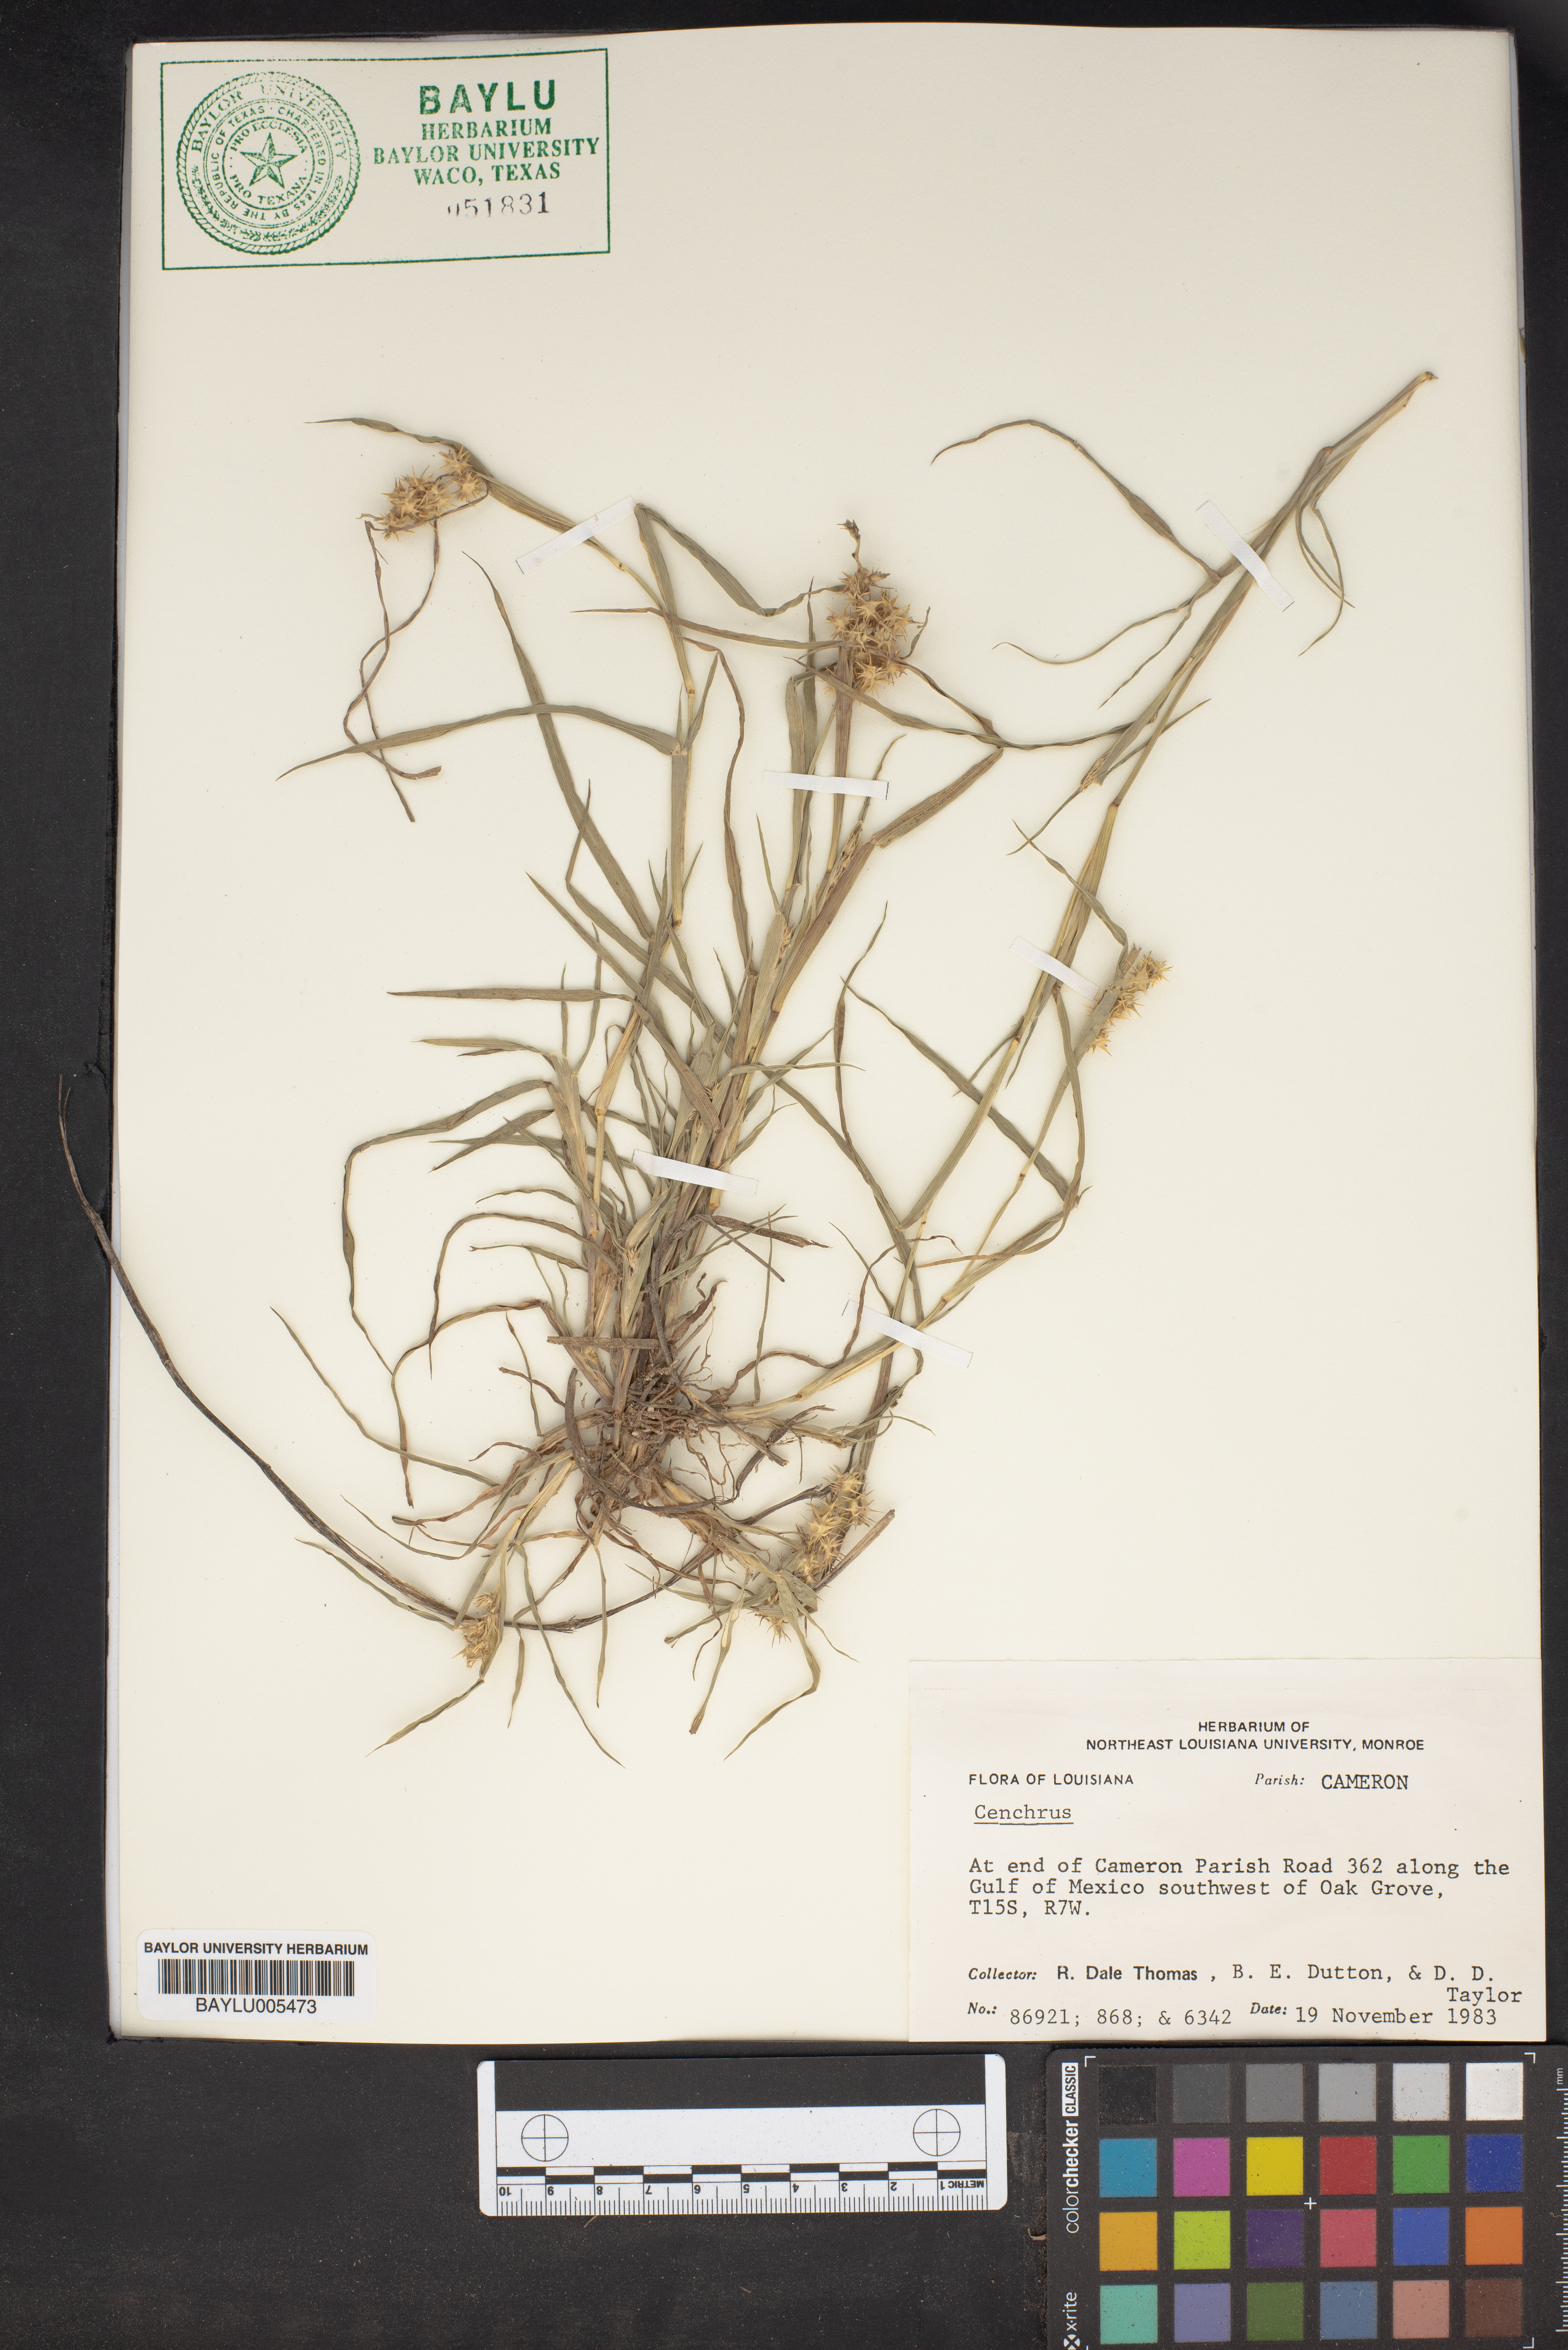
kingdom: Plantae
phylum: Tracheophyta
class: Liliopsida
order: Poales
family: Poaceae
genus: Cenchrus
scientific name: Cenchrus
